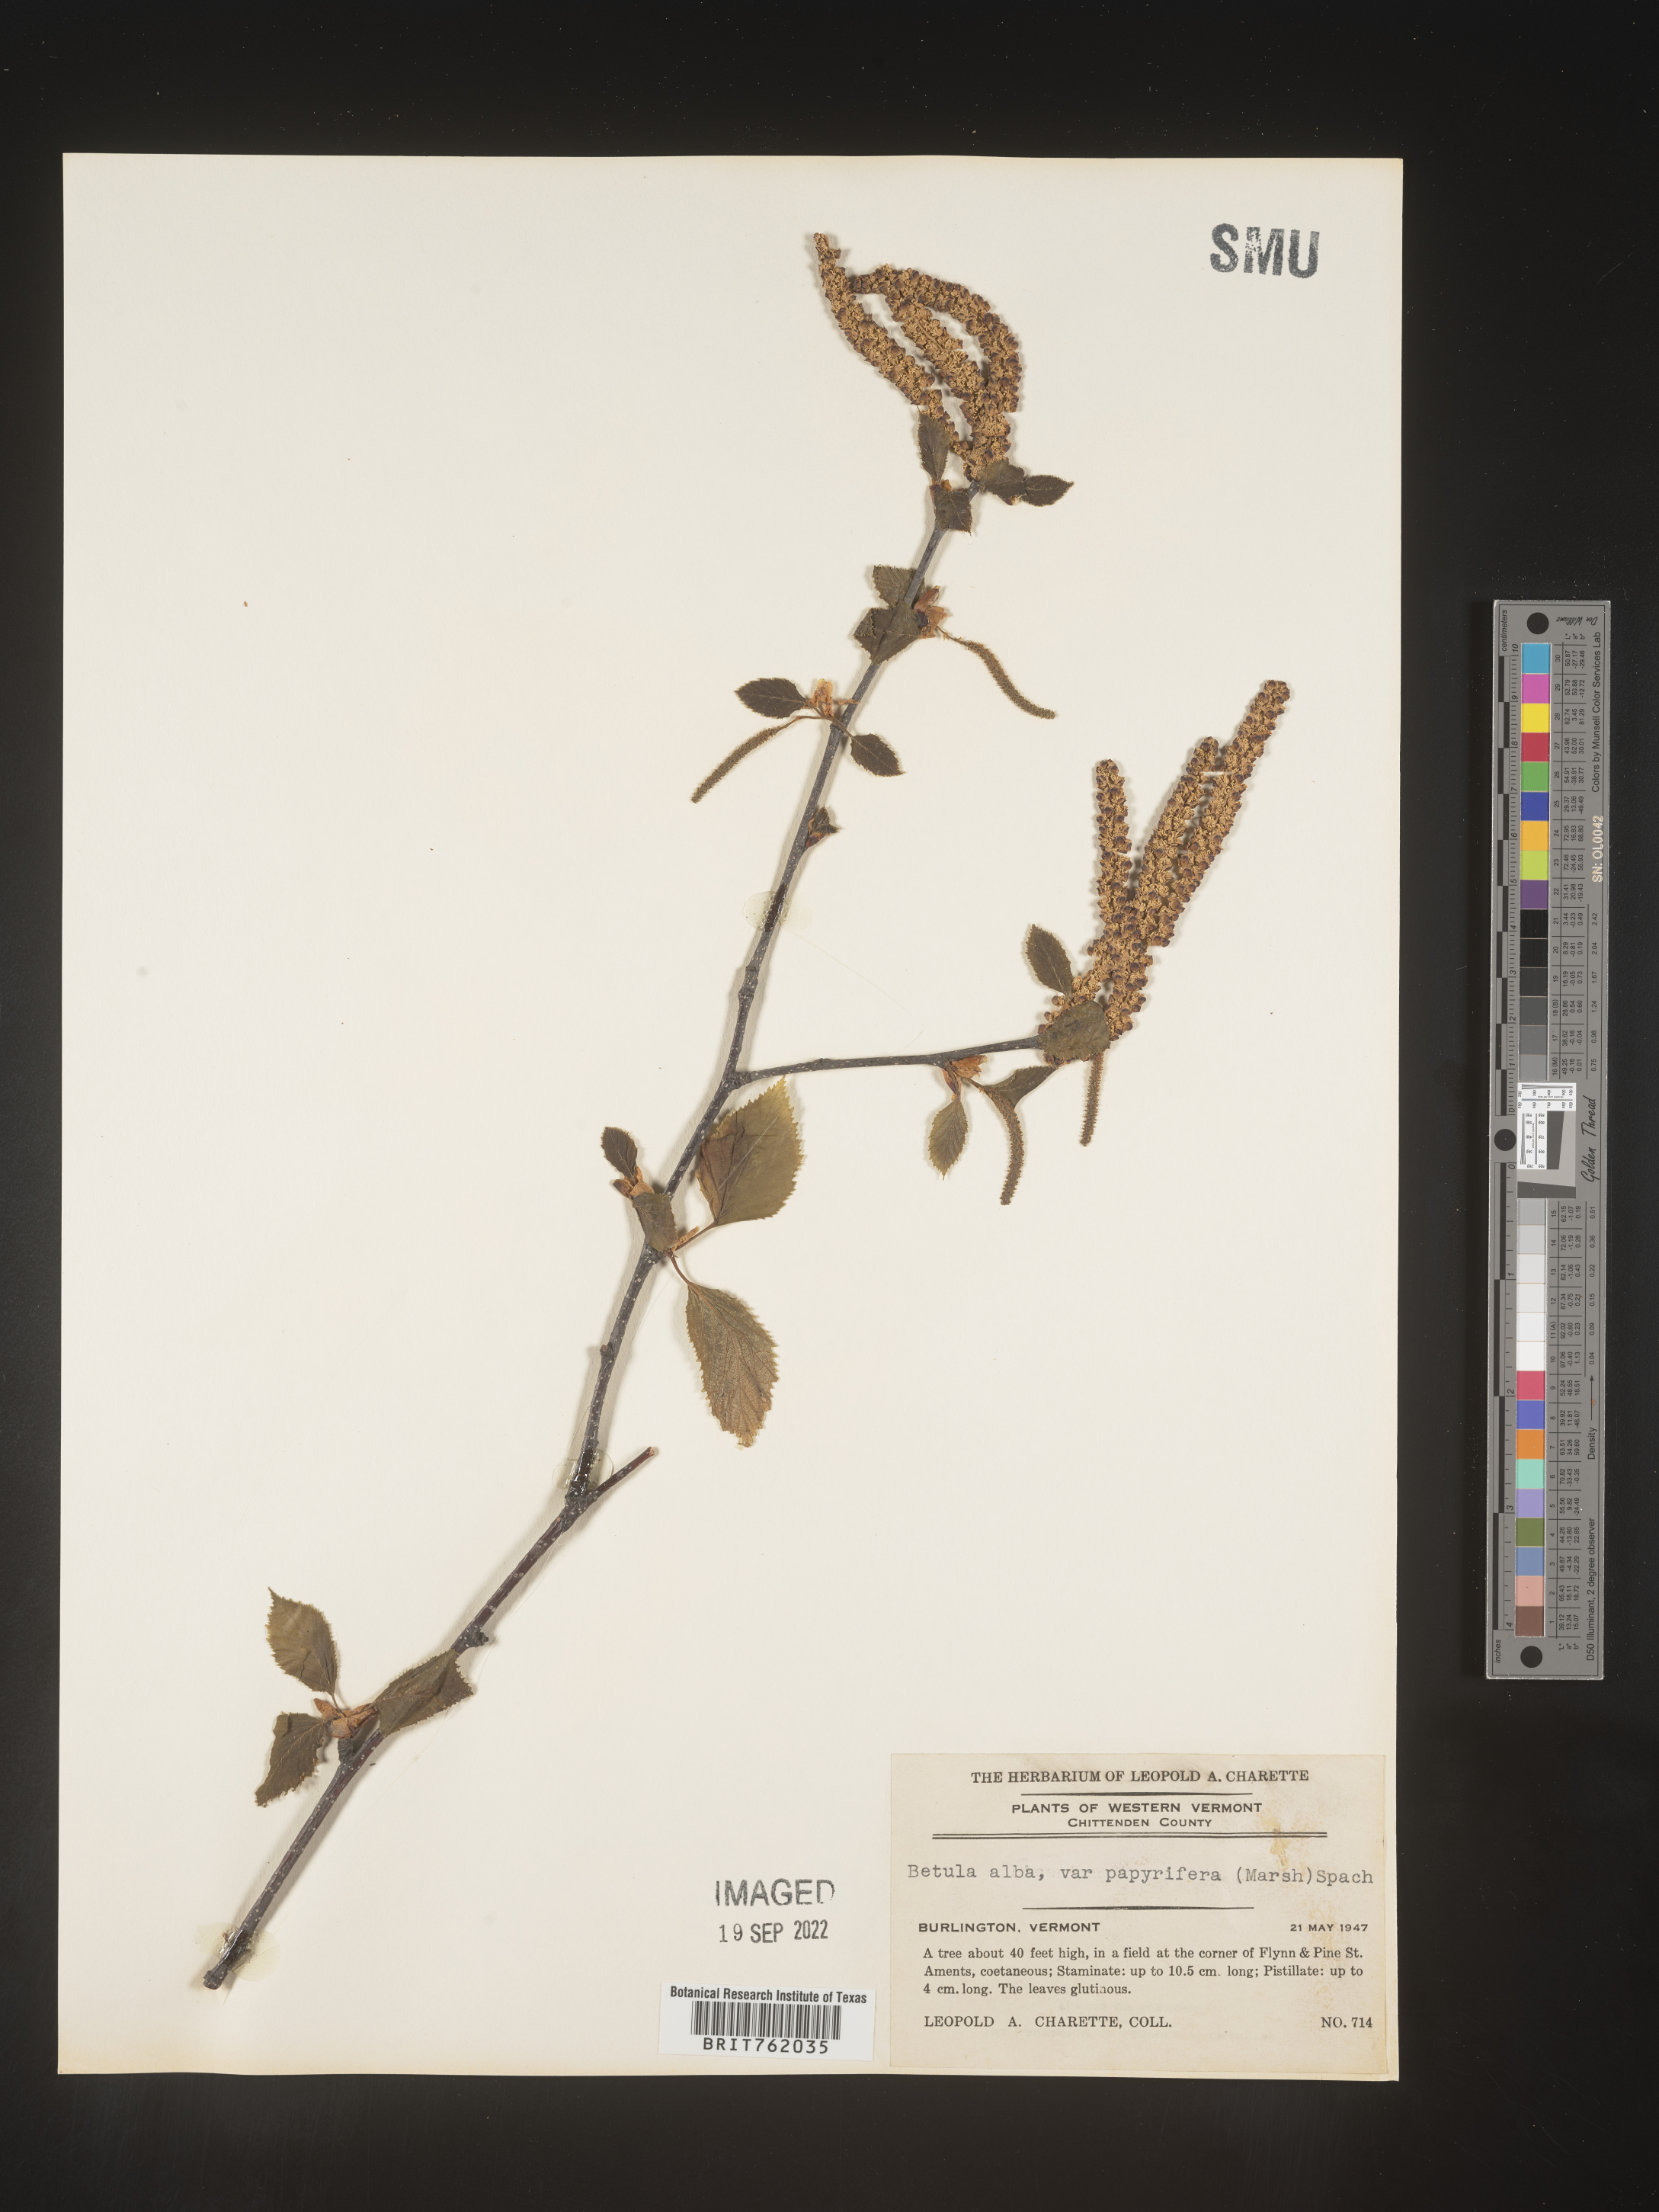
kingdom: Plantae
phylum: Tracheophyta
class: Magnoliopsida
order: Fagales
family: Betulaceae
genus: Betula
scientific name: Betula papyrifera
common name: Paper birch
